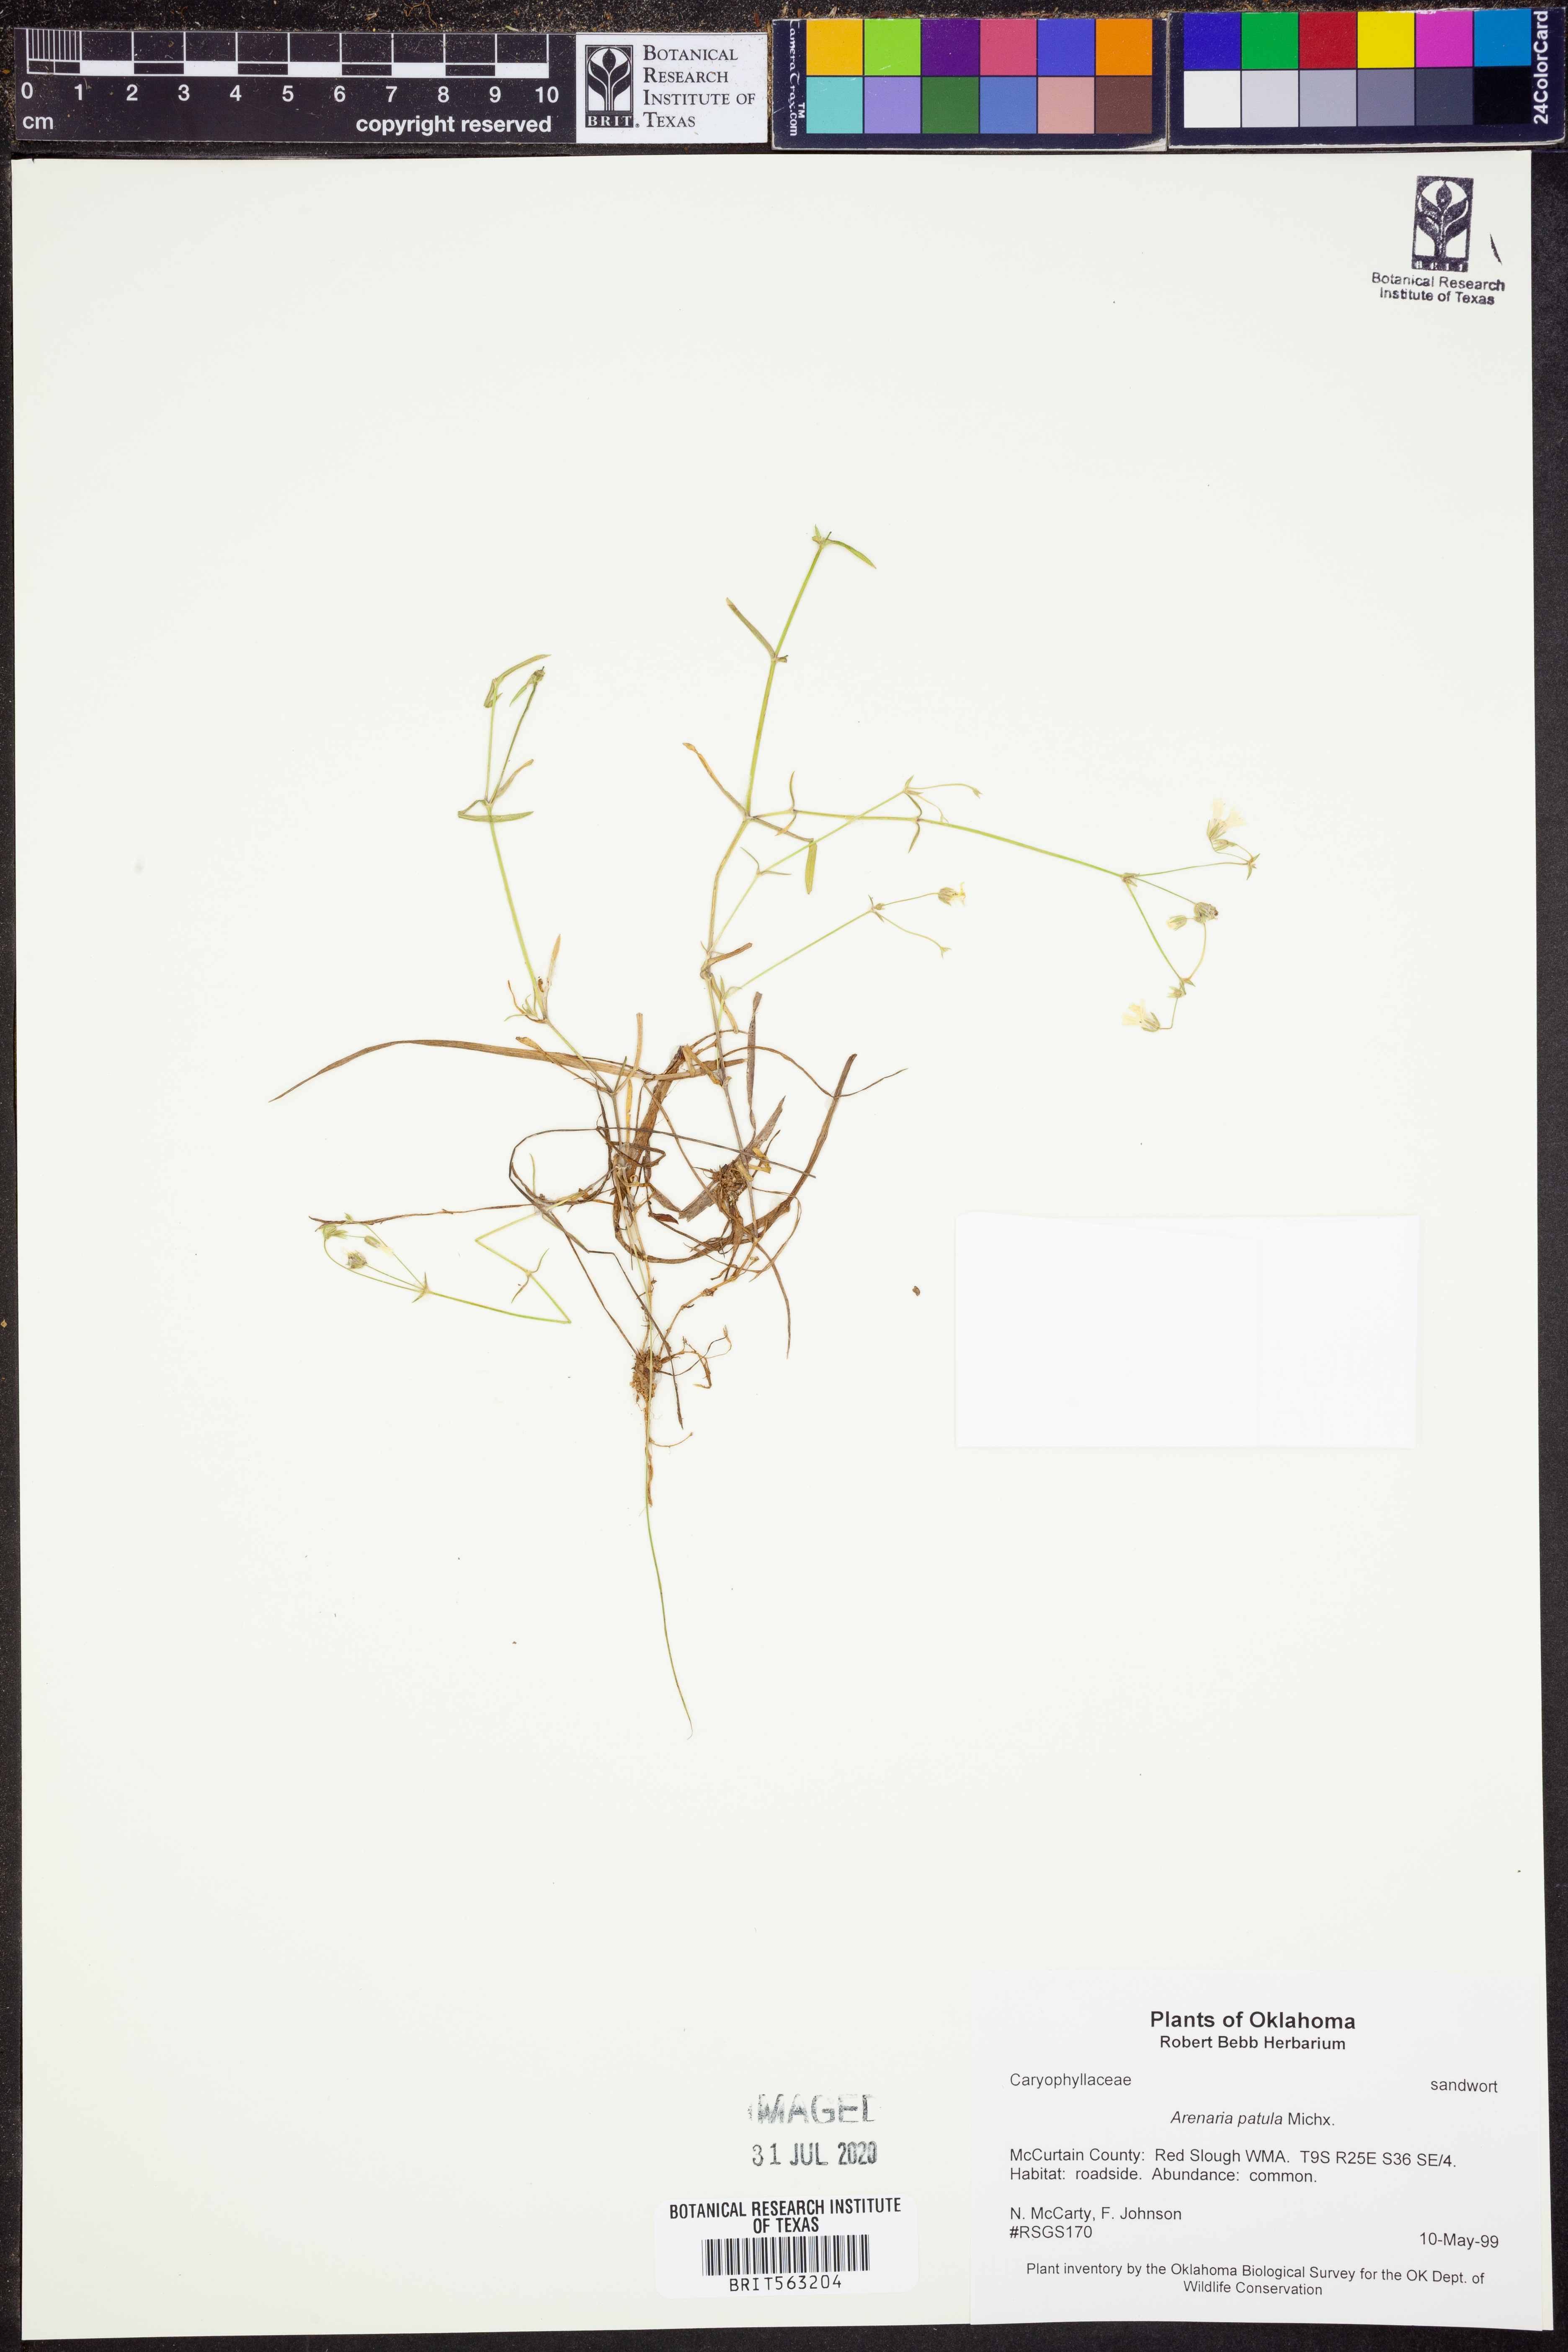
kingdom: Plantae
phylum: Tracheophyta
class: Magnoliopsida
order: Caryophyllales
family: Caryophyllaceae
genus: Mononeuria
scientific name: Mononeuria patula
